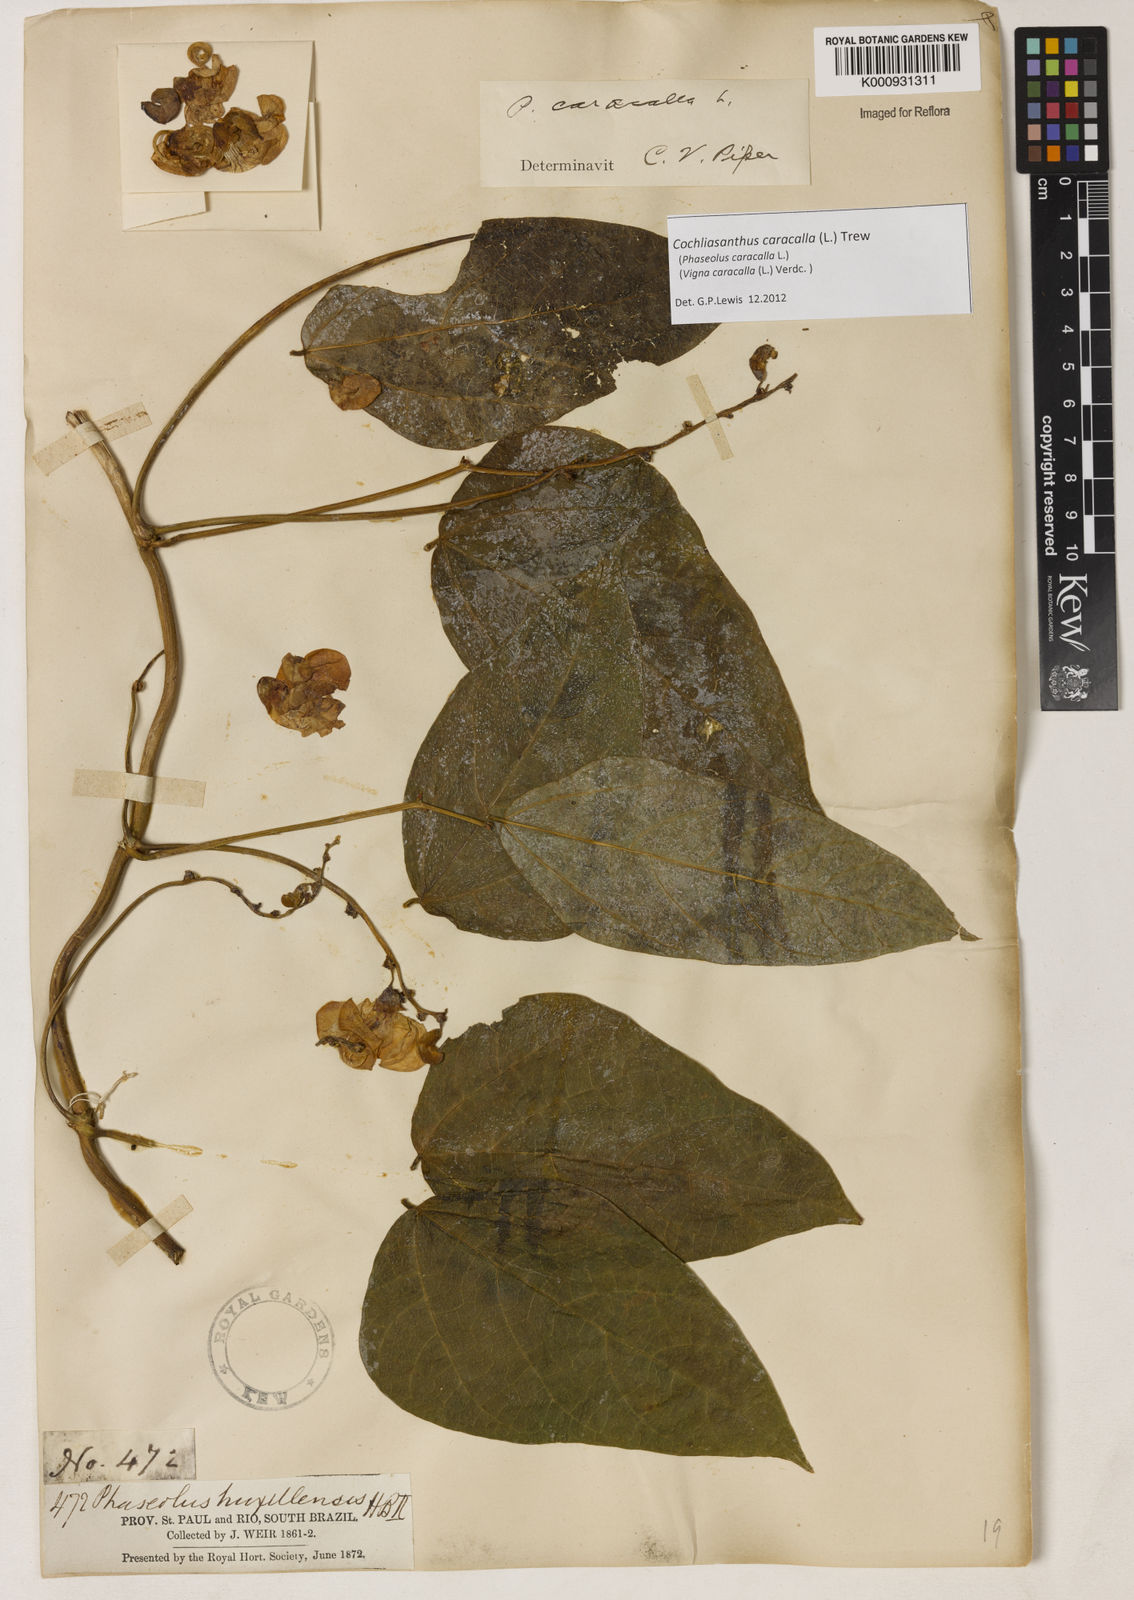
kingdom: Plantae
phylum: Tracheophyta
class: Magnoliopsida
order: Fabales
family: Fabaceae
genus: Cochliasanthus
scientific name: Cochliasanthus caracalla
